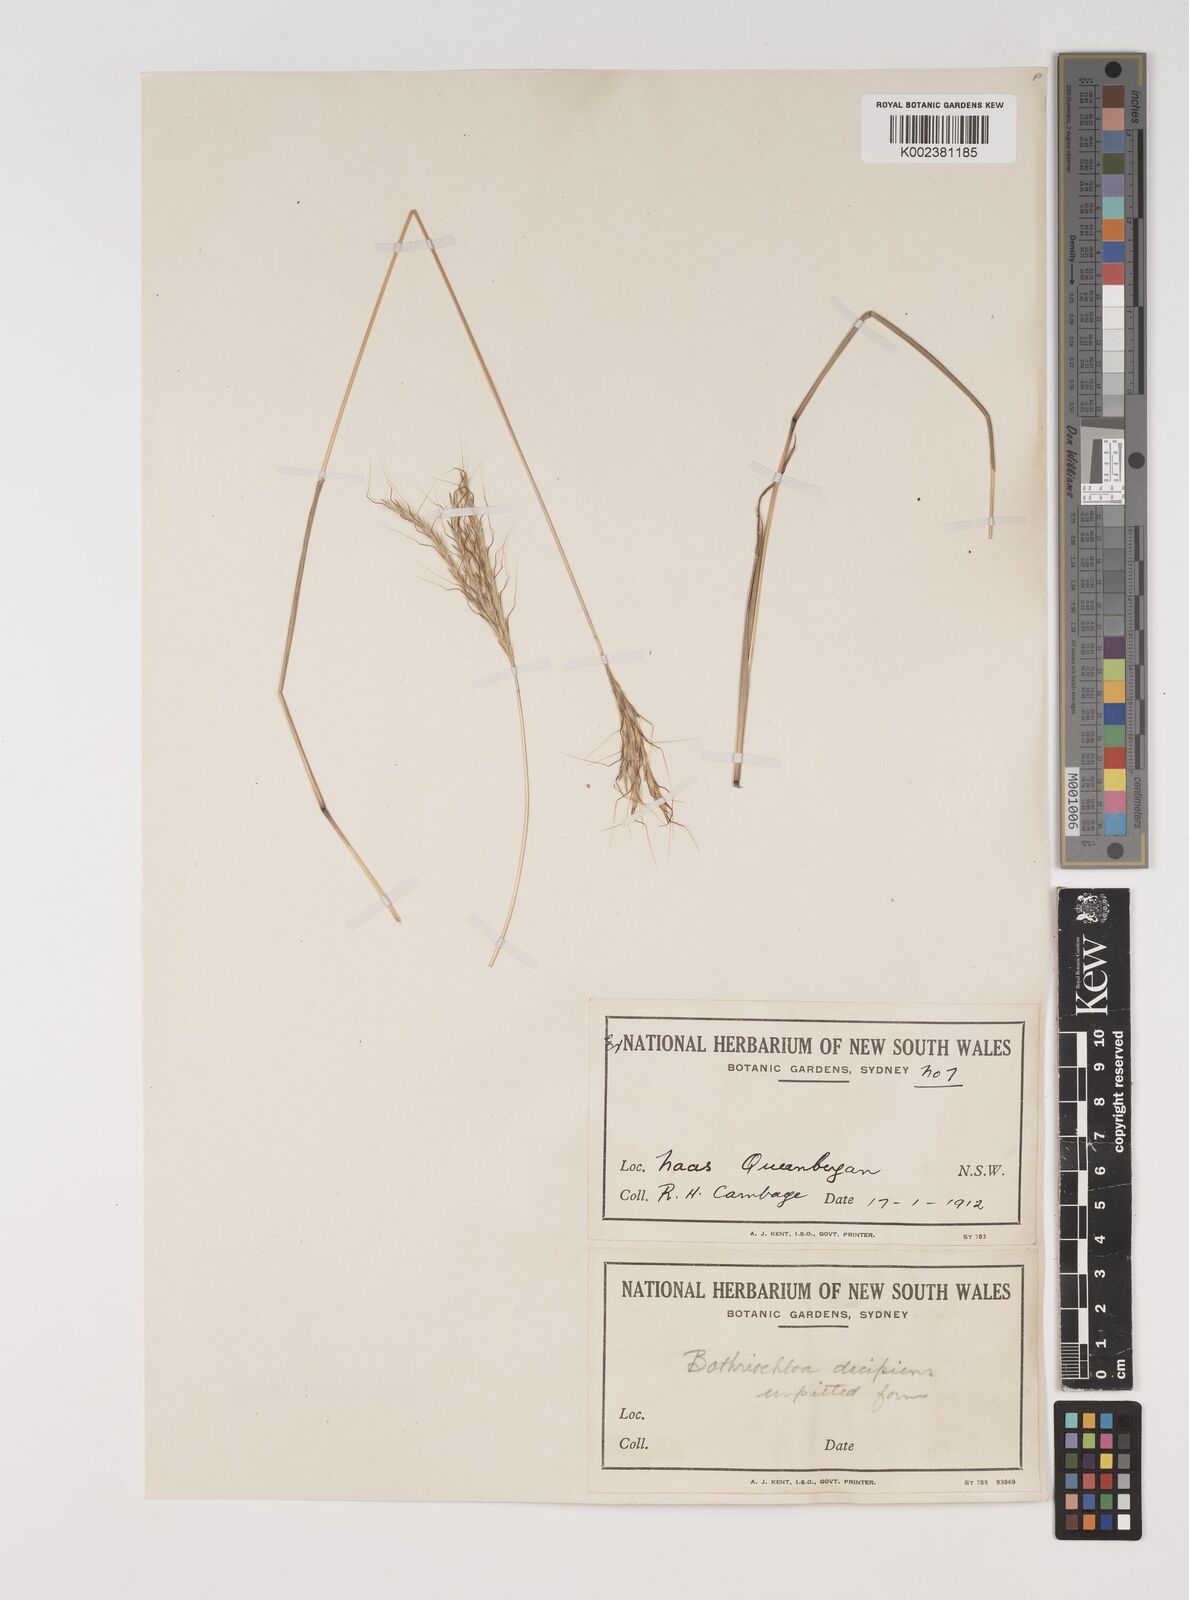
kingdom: Plantae
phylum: Tracheophyta
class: Liliopsida
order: Poales
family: Poaceae
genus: Bothriochloa
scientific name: Bothriochloa macra
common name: Pitted beard grass
